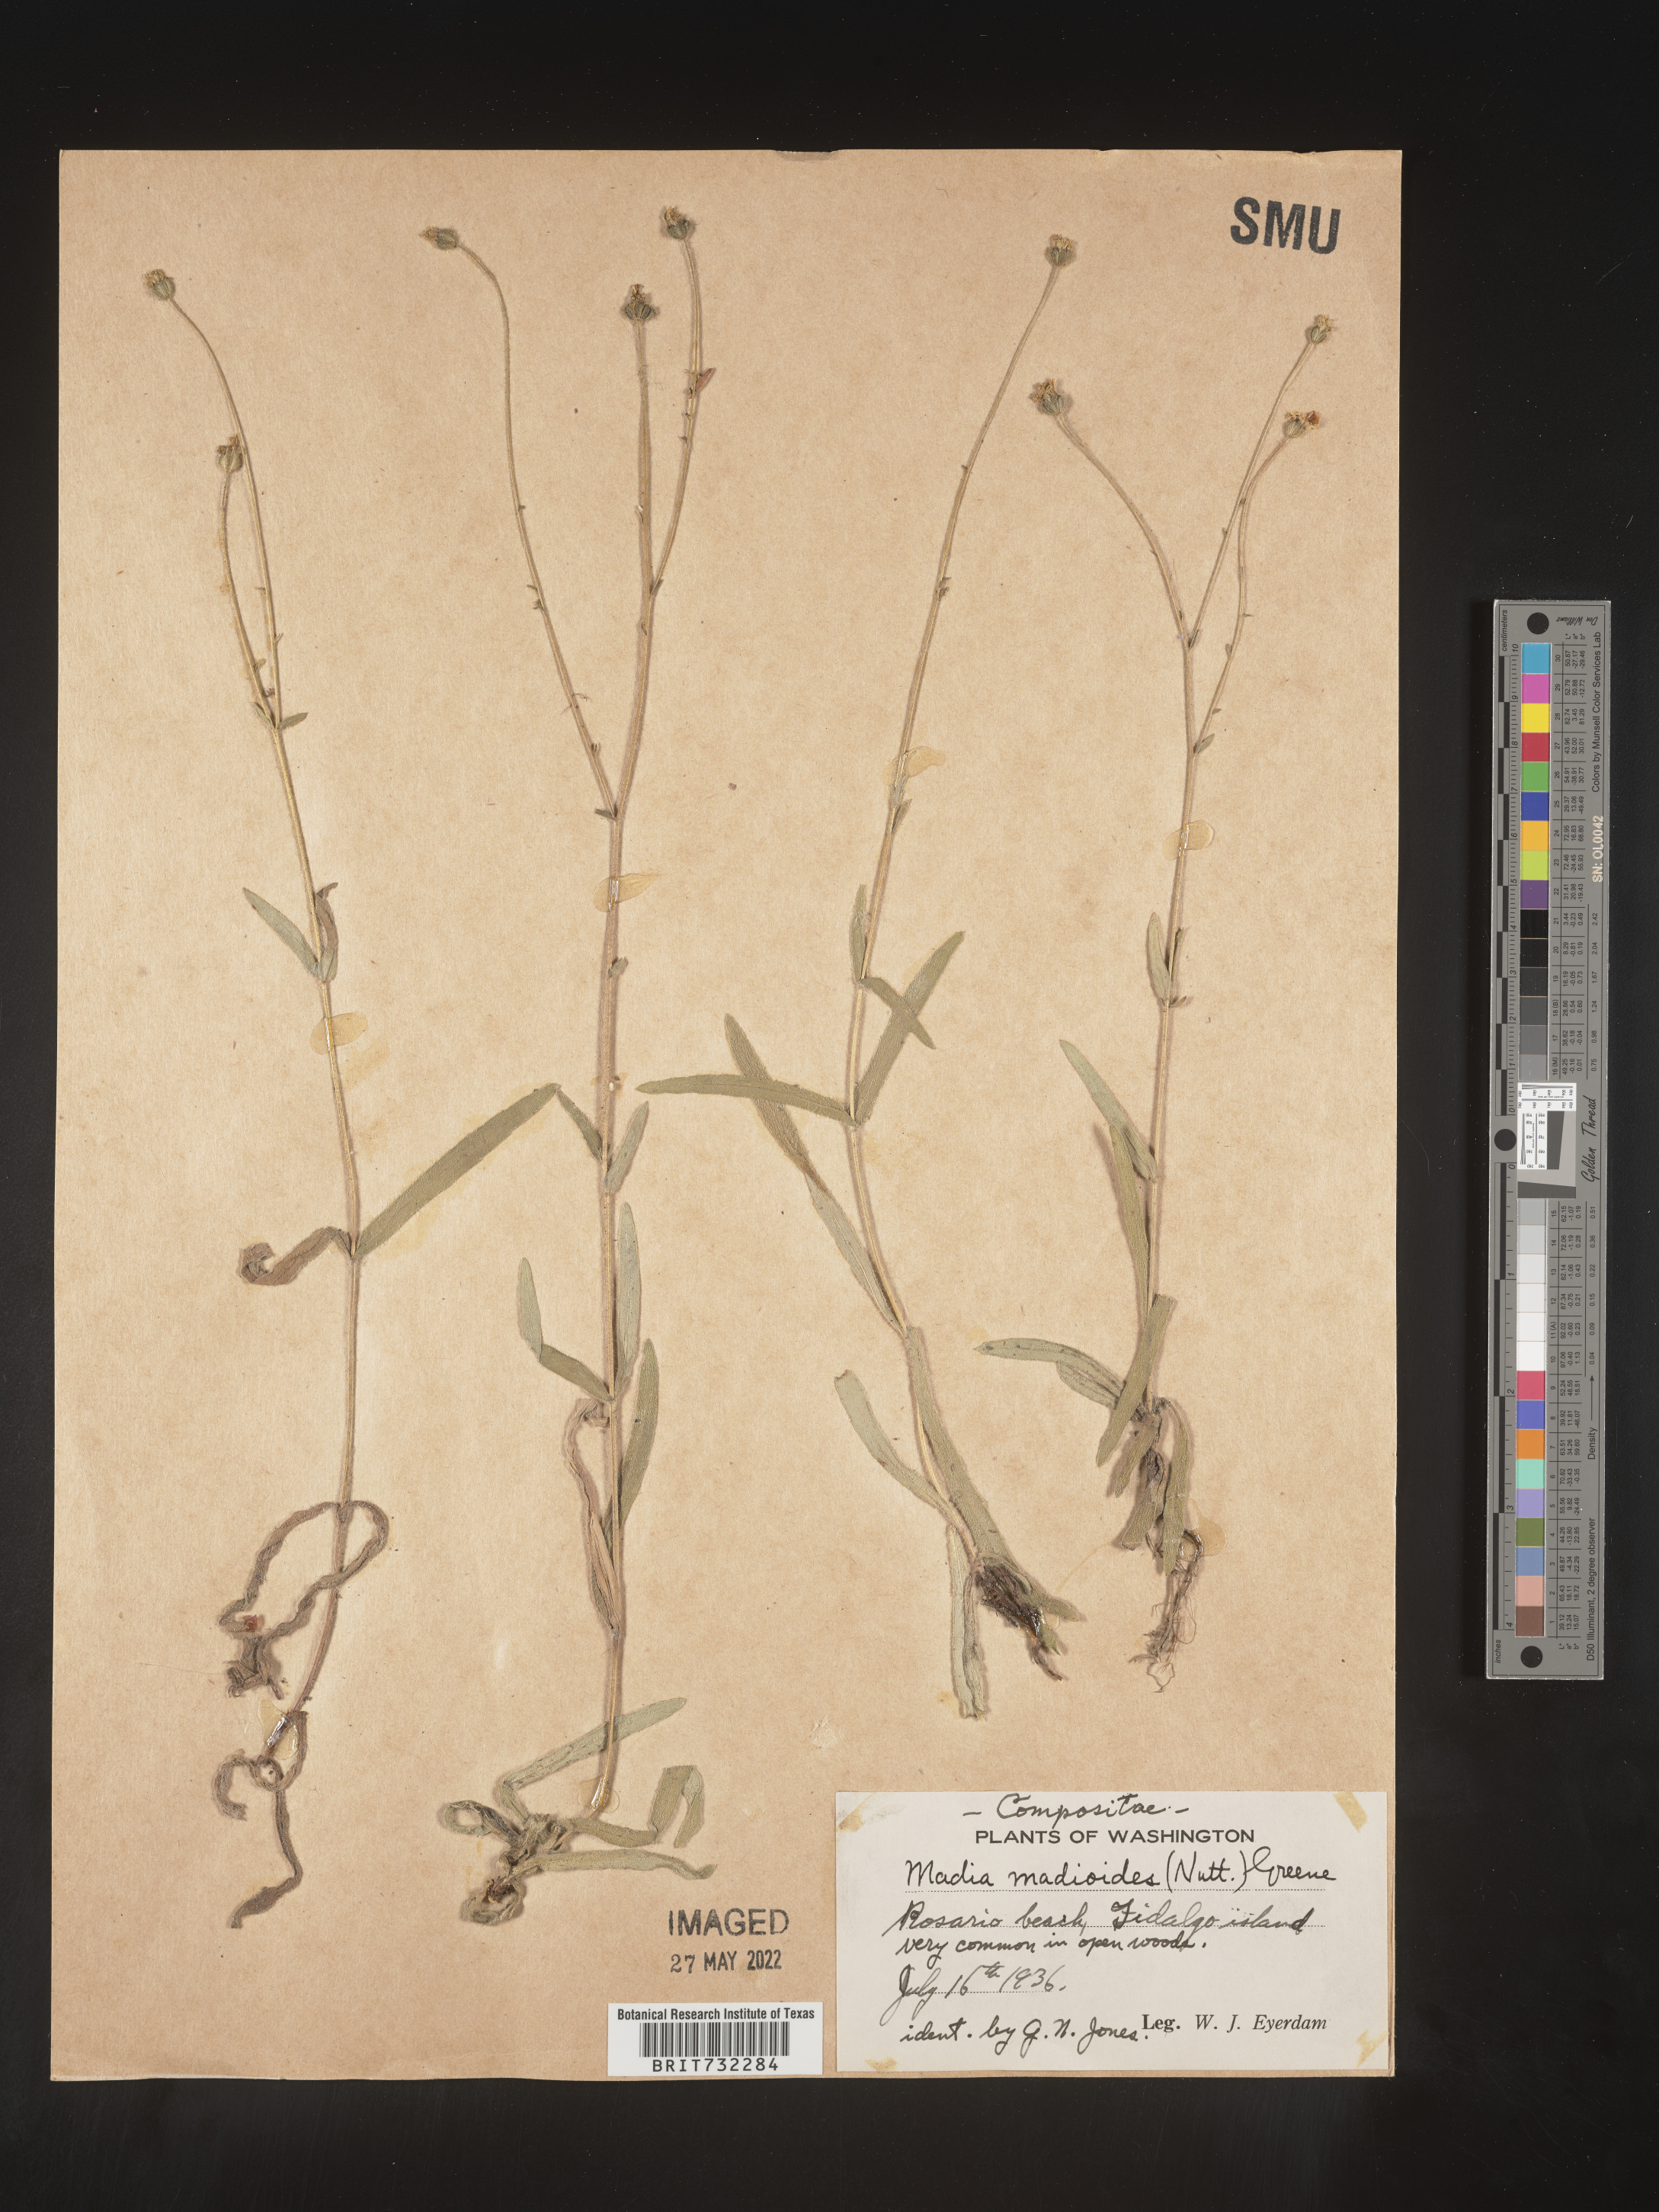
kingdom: Plantae
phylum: Tracheophyta
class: Magnoliopsida
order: Asterales
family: Asteraceae
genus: Madia
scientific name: Madia
